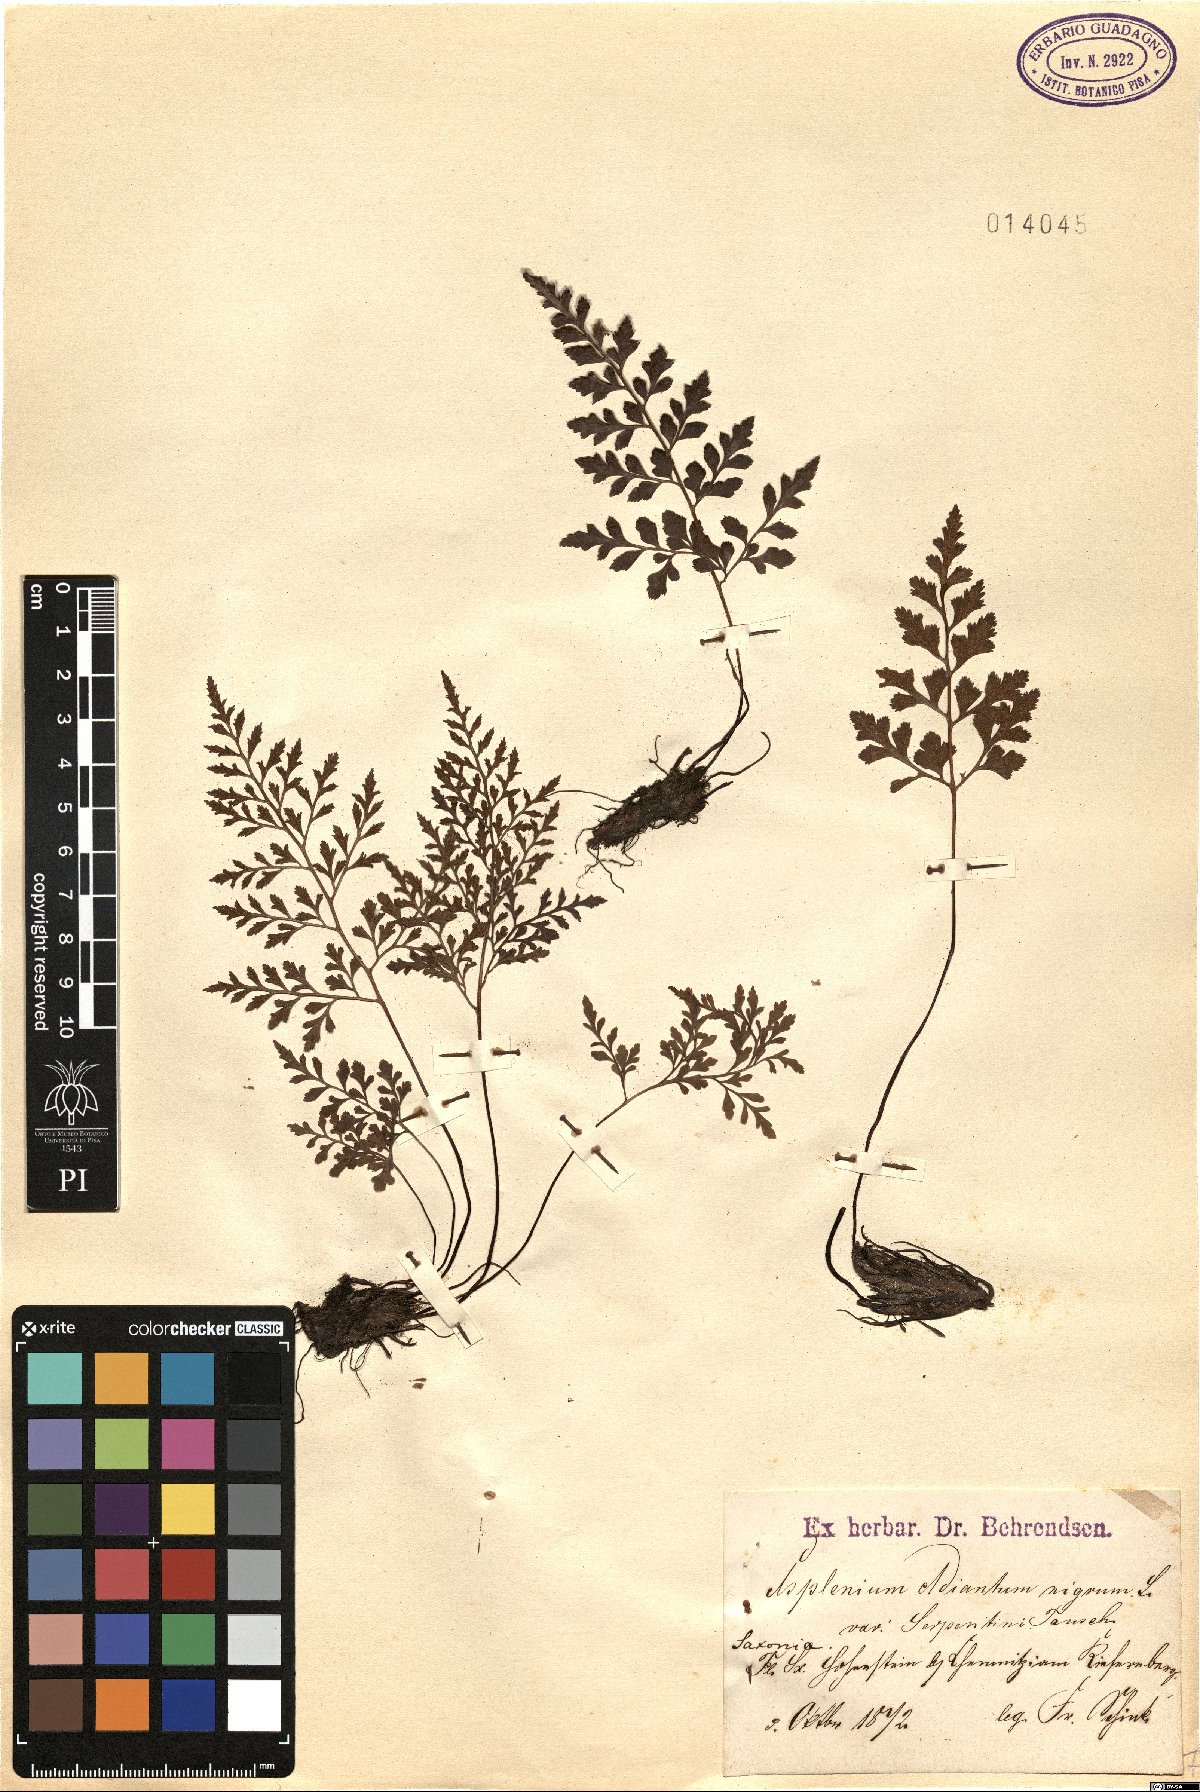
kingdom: Plantae
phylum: Tracheophyta
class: Polypodiopsida
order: Polypodiales
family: Aspleniaceae
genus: Asplenium
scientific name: Asplenium cuneifolium
